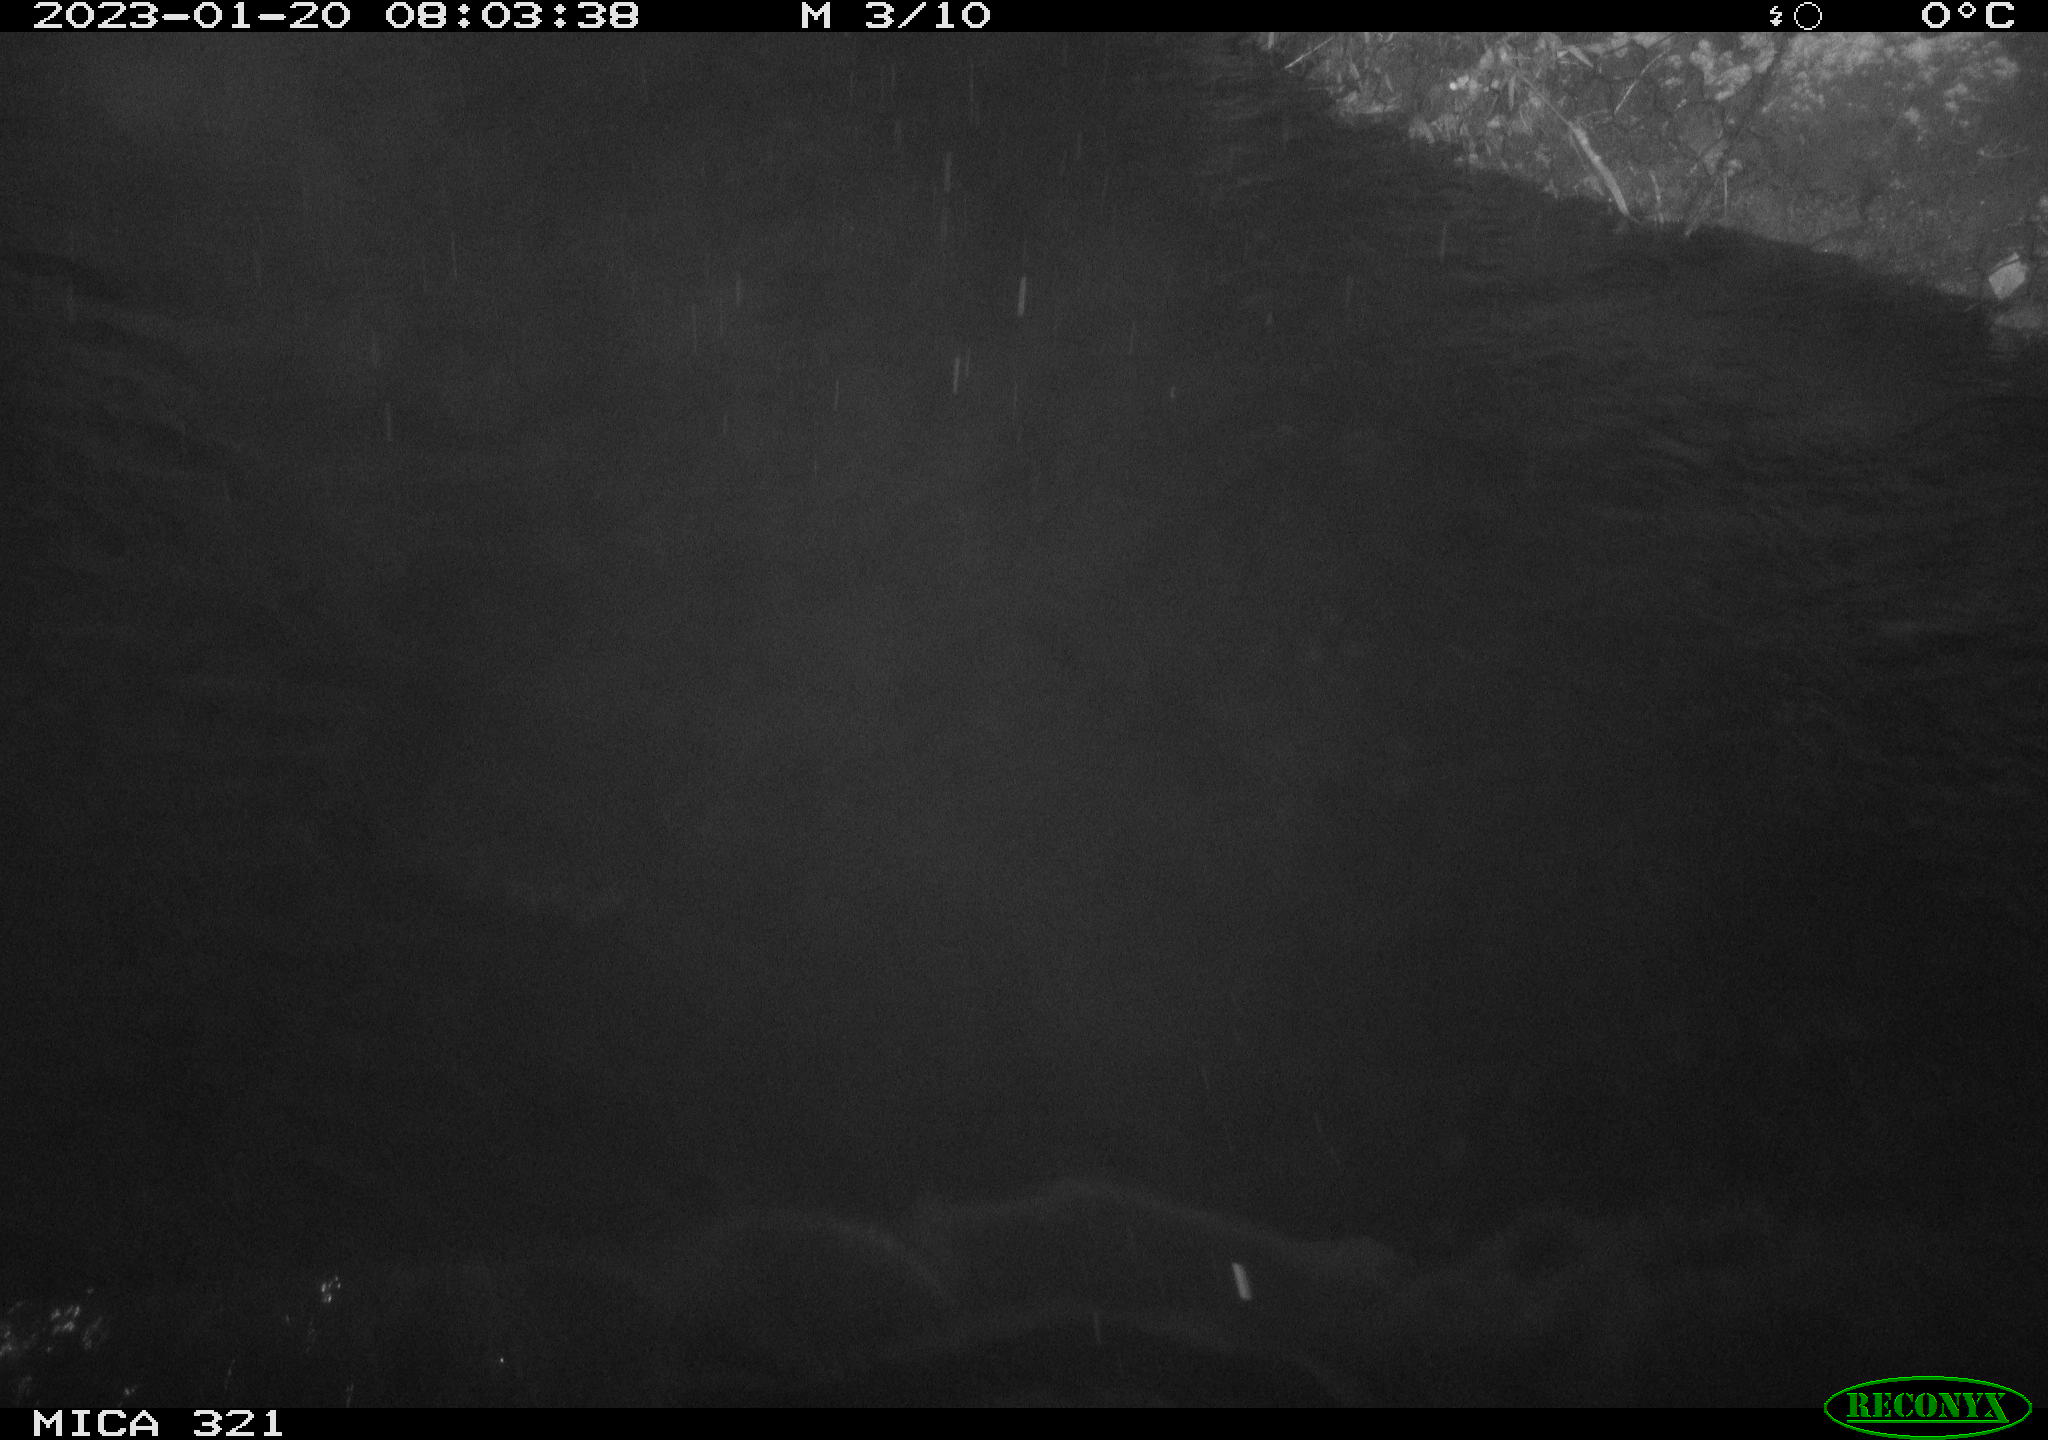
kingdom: Animalia
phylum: Chordata
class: Aves
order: Anseriformes
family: Anatidae
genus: Anas
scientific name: Anas
